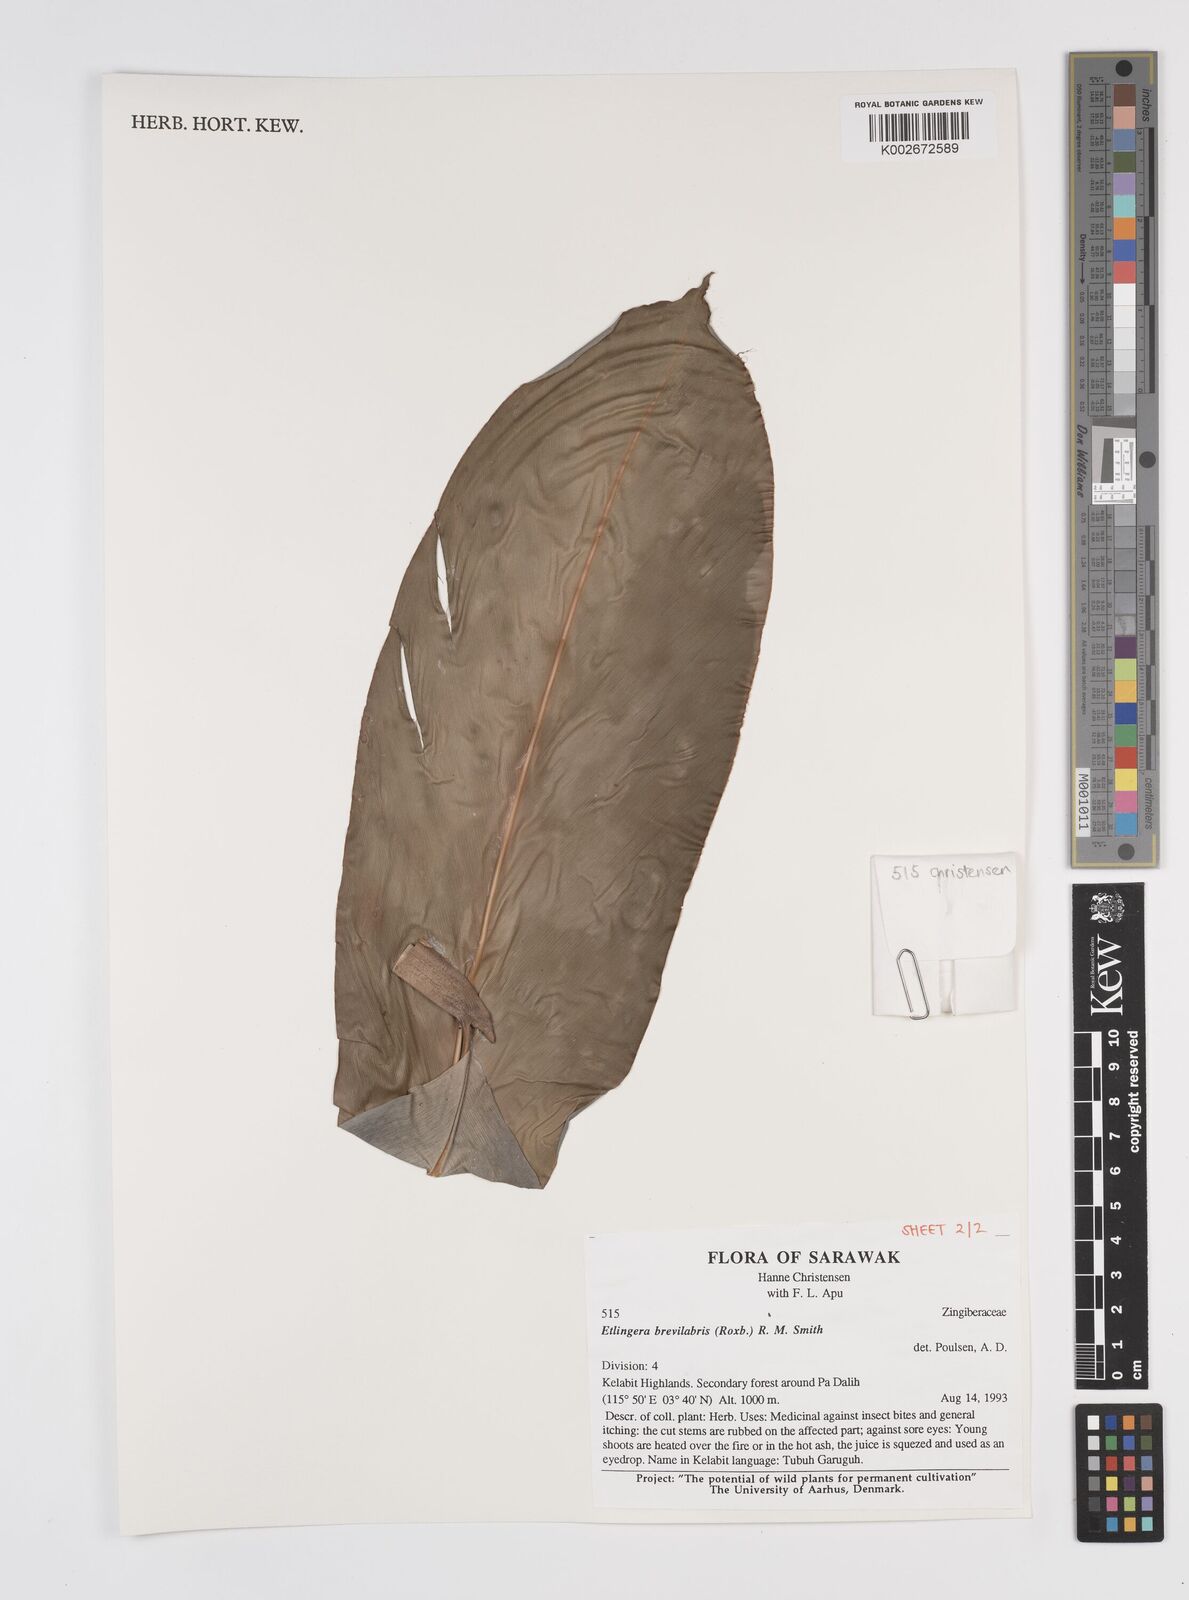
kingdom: Plantae
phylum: Tracheophyta
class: Liliopsida
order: Zingiberales
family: Zingiberaceae
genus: Etlingera
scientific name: Etlingera
